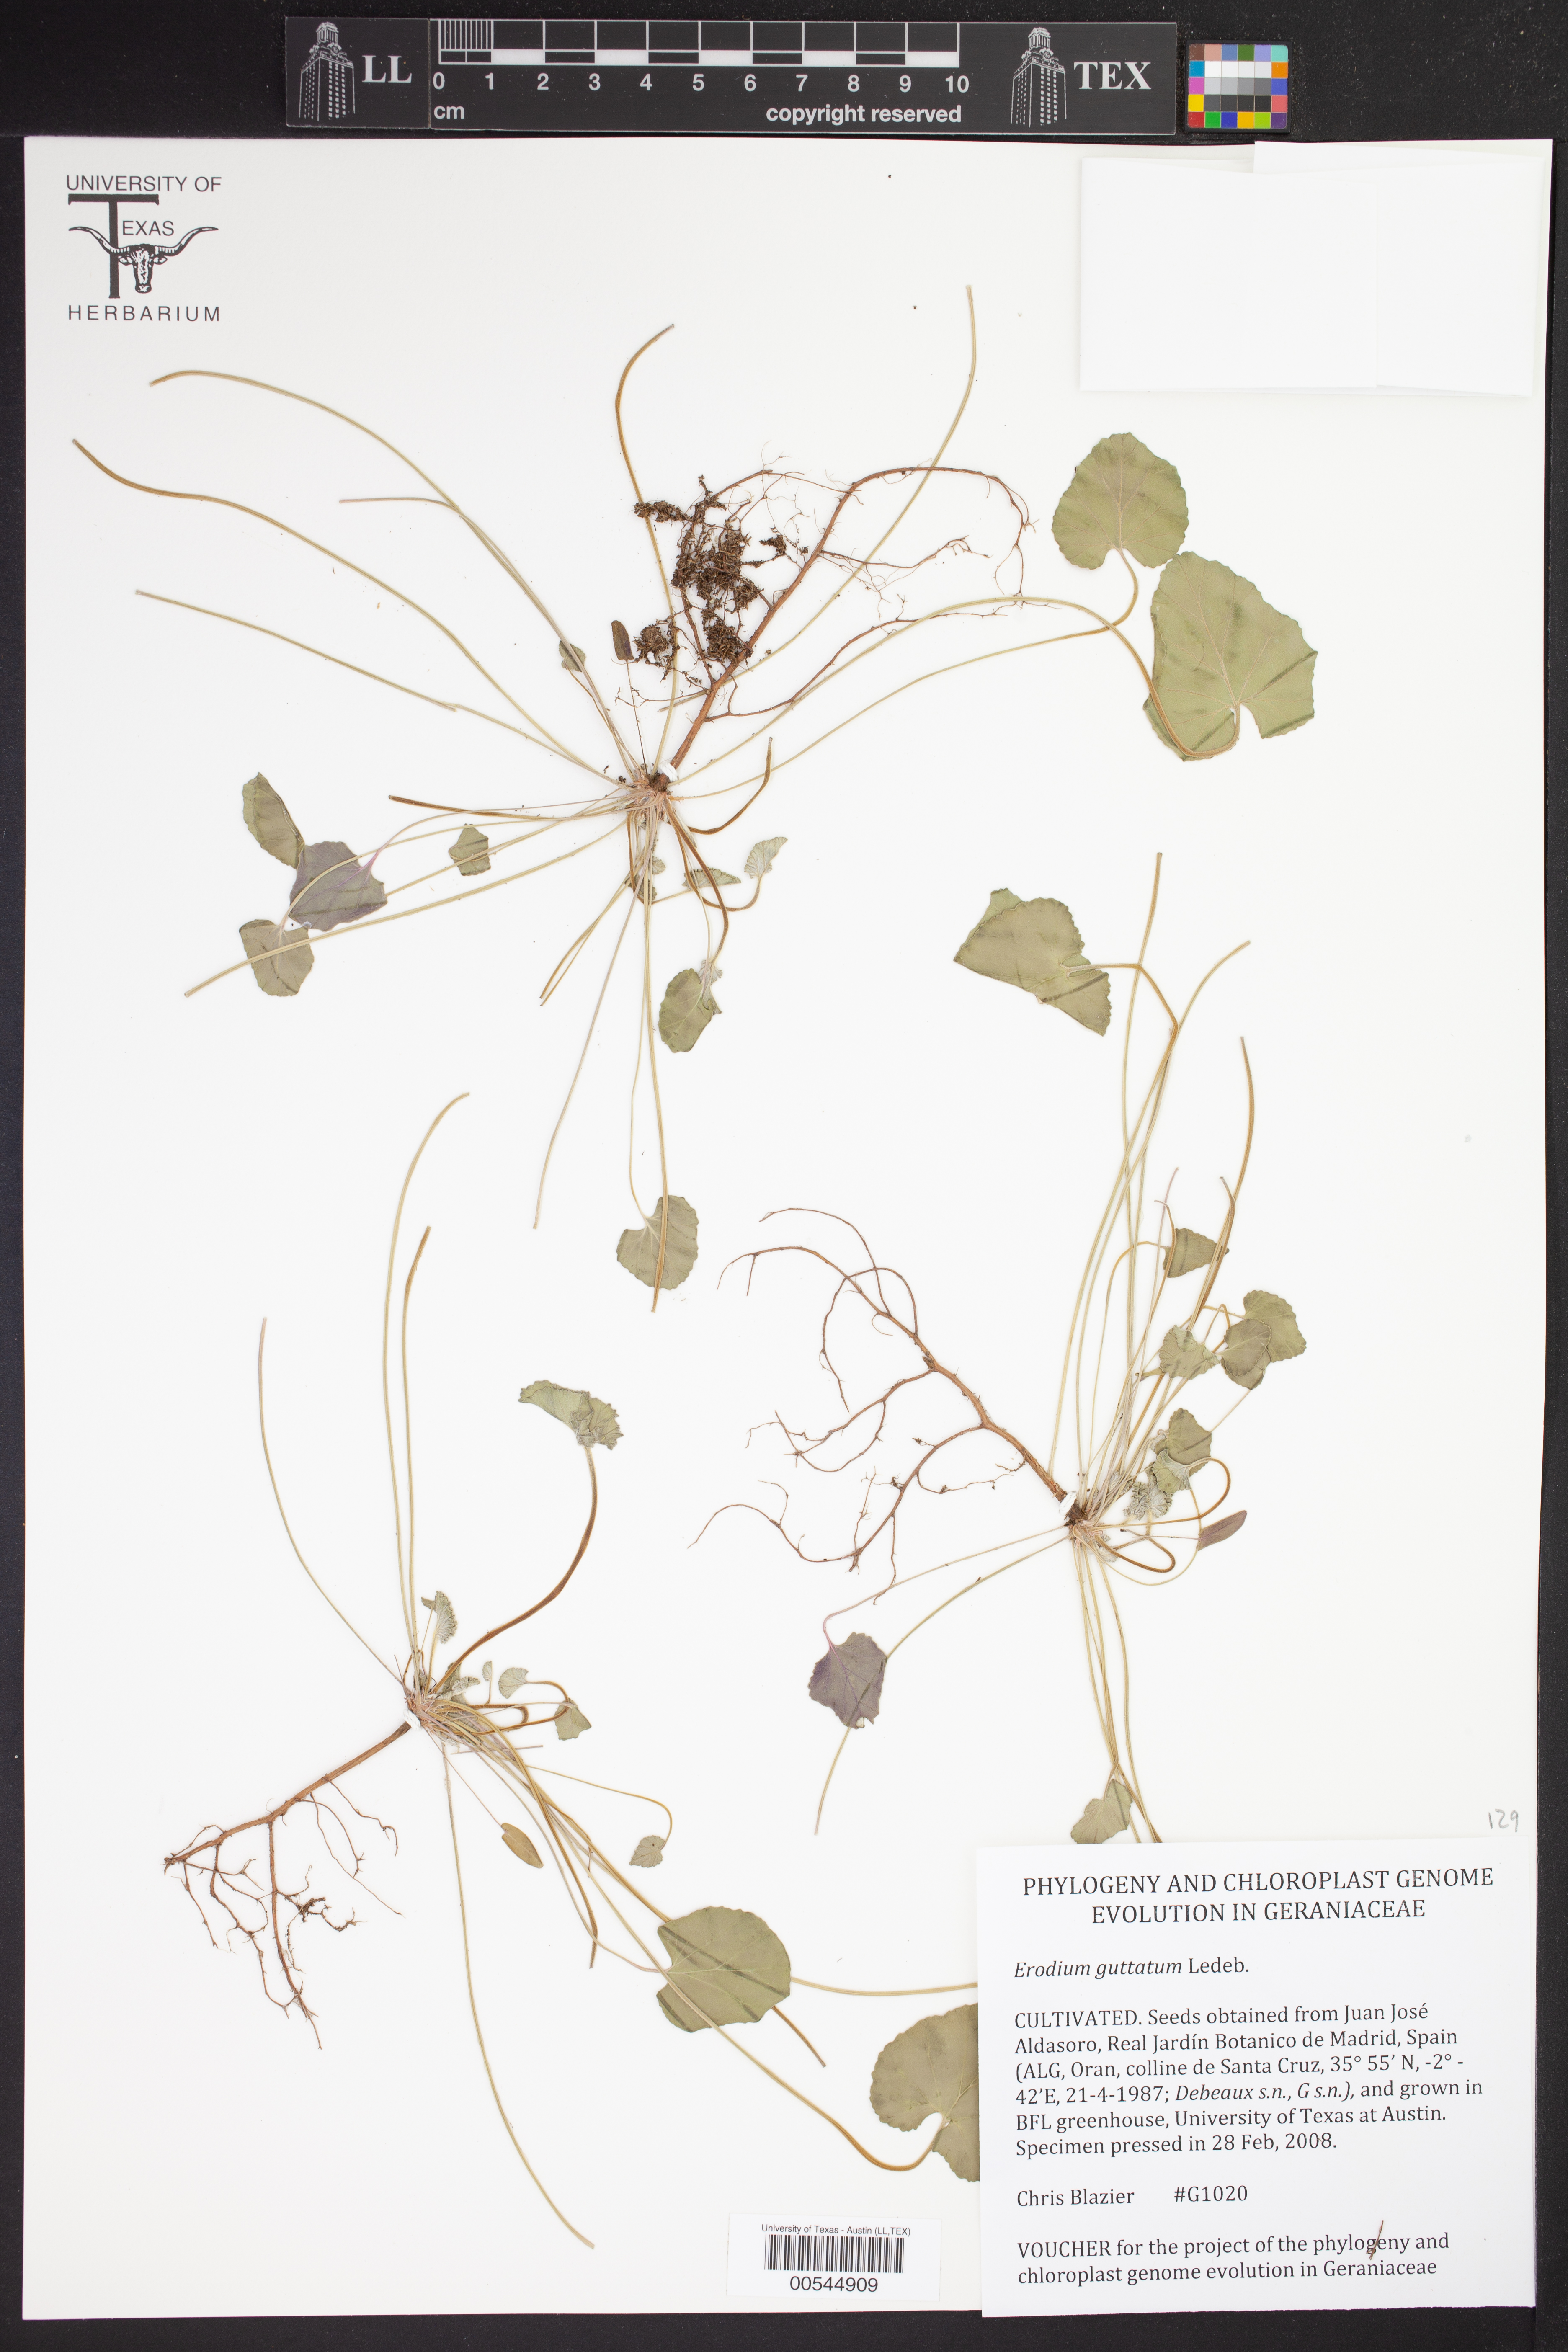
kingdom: Plantae
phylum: Tracheophyta
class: Magnoliopsida
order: Geraniales
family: Geraniaceae
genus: Erodium
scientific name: Erodium guttatum
